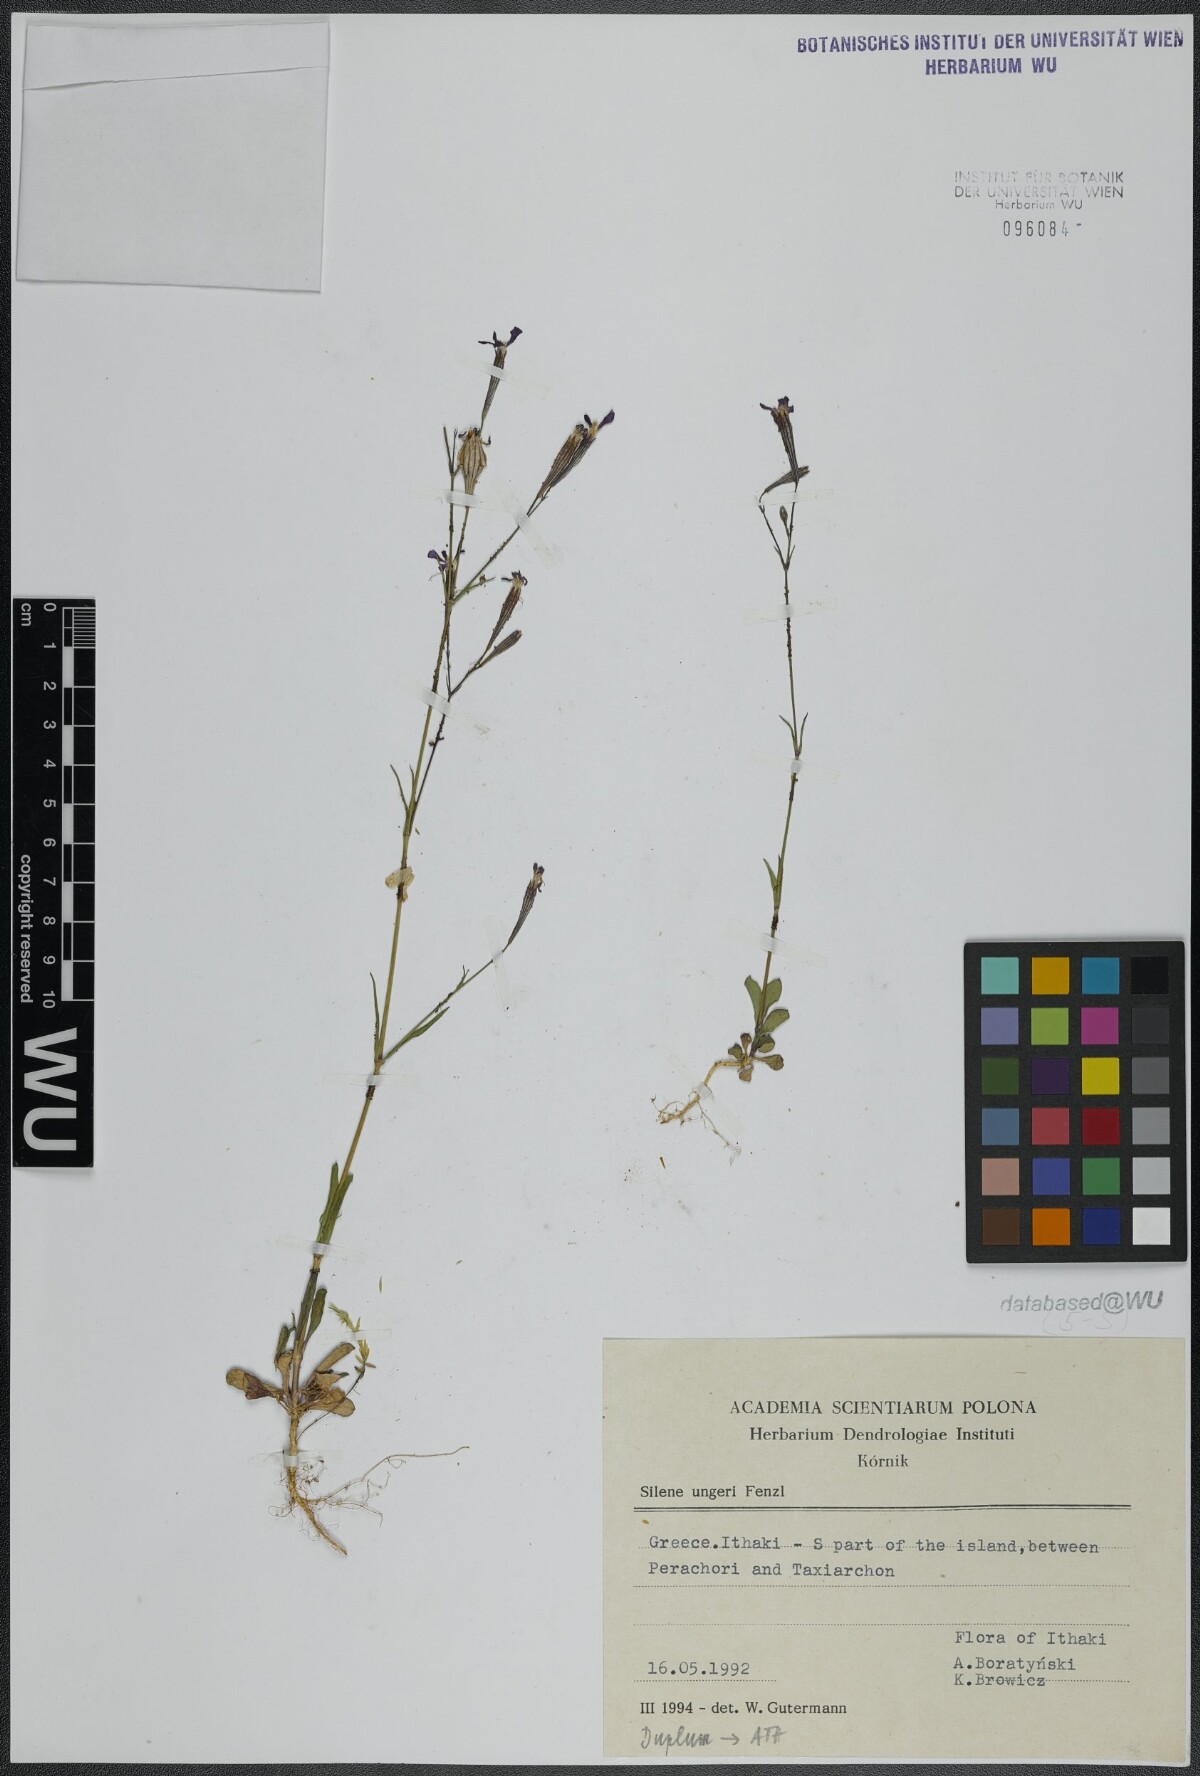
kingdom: Plantae
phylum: Tracheophyta
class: Magnoliopsida
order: Caryophyllales
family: Caryophyllaceae
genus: Silene
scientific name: Silene ungeri
